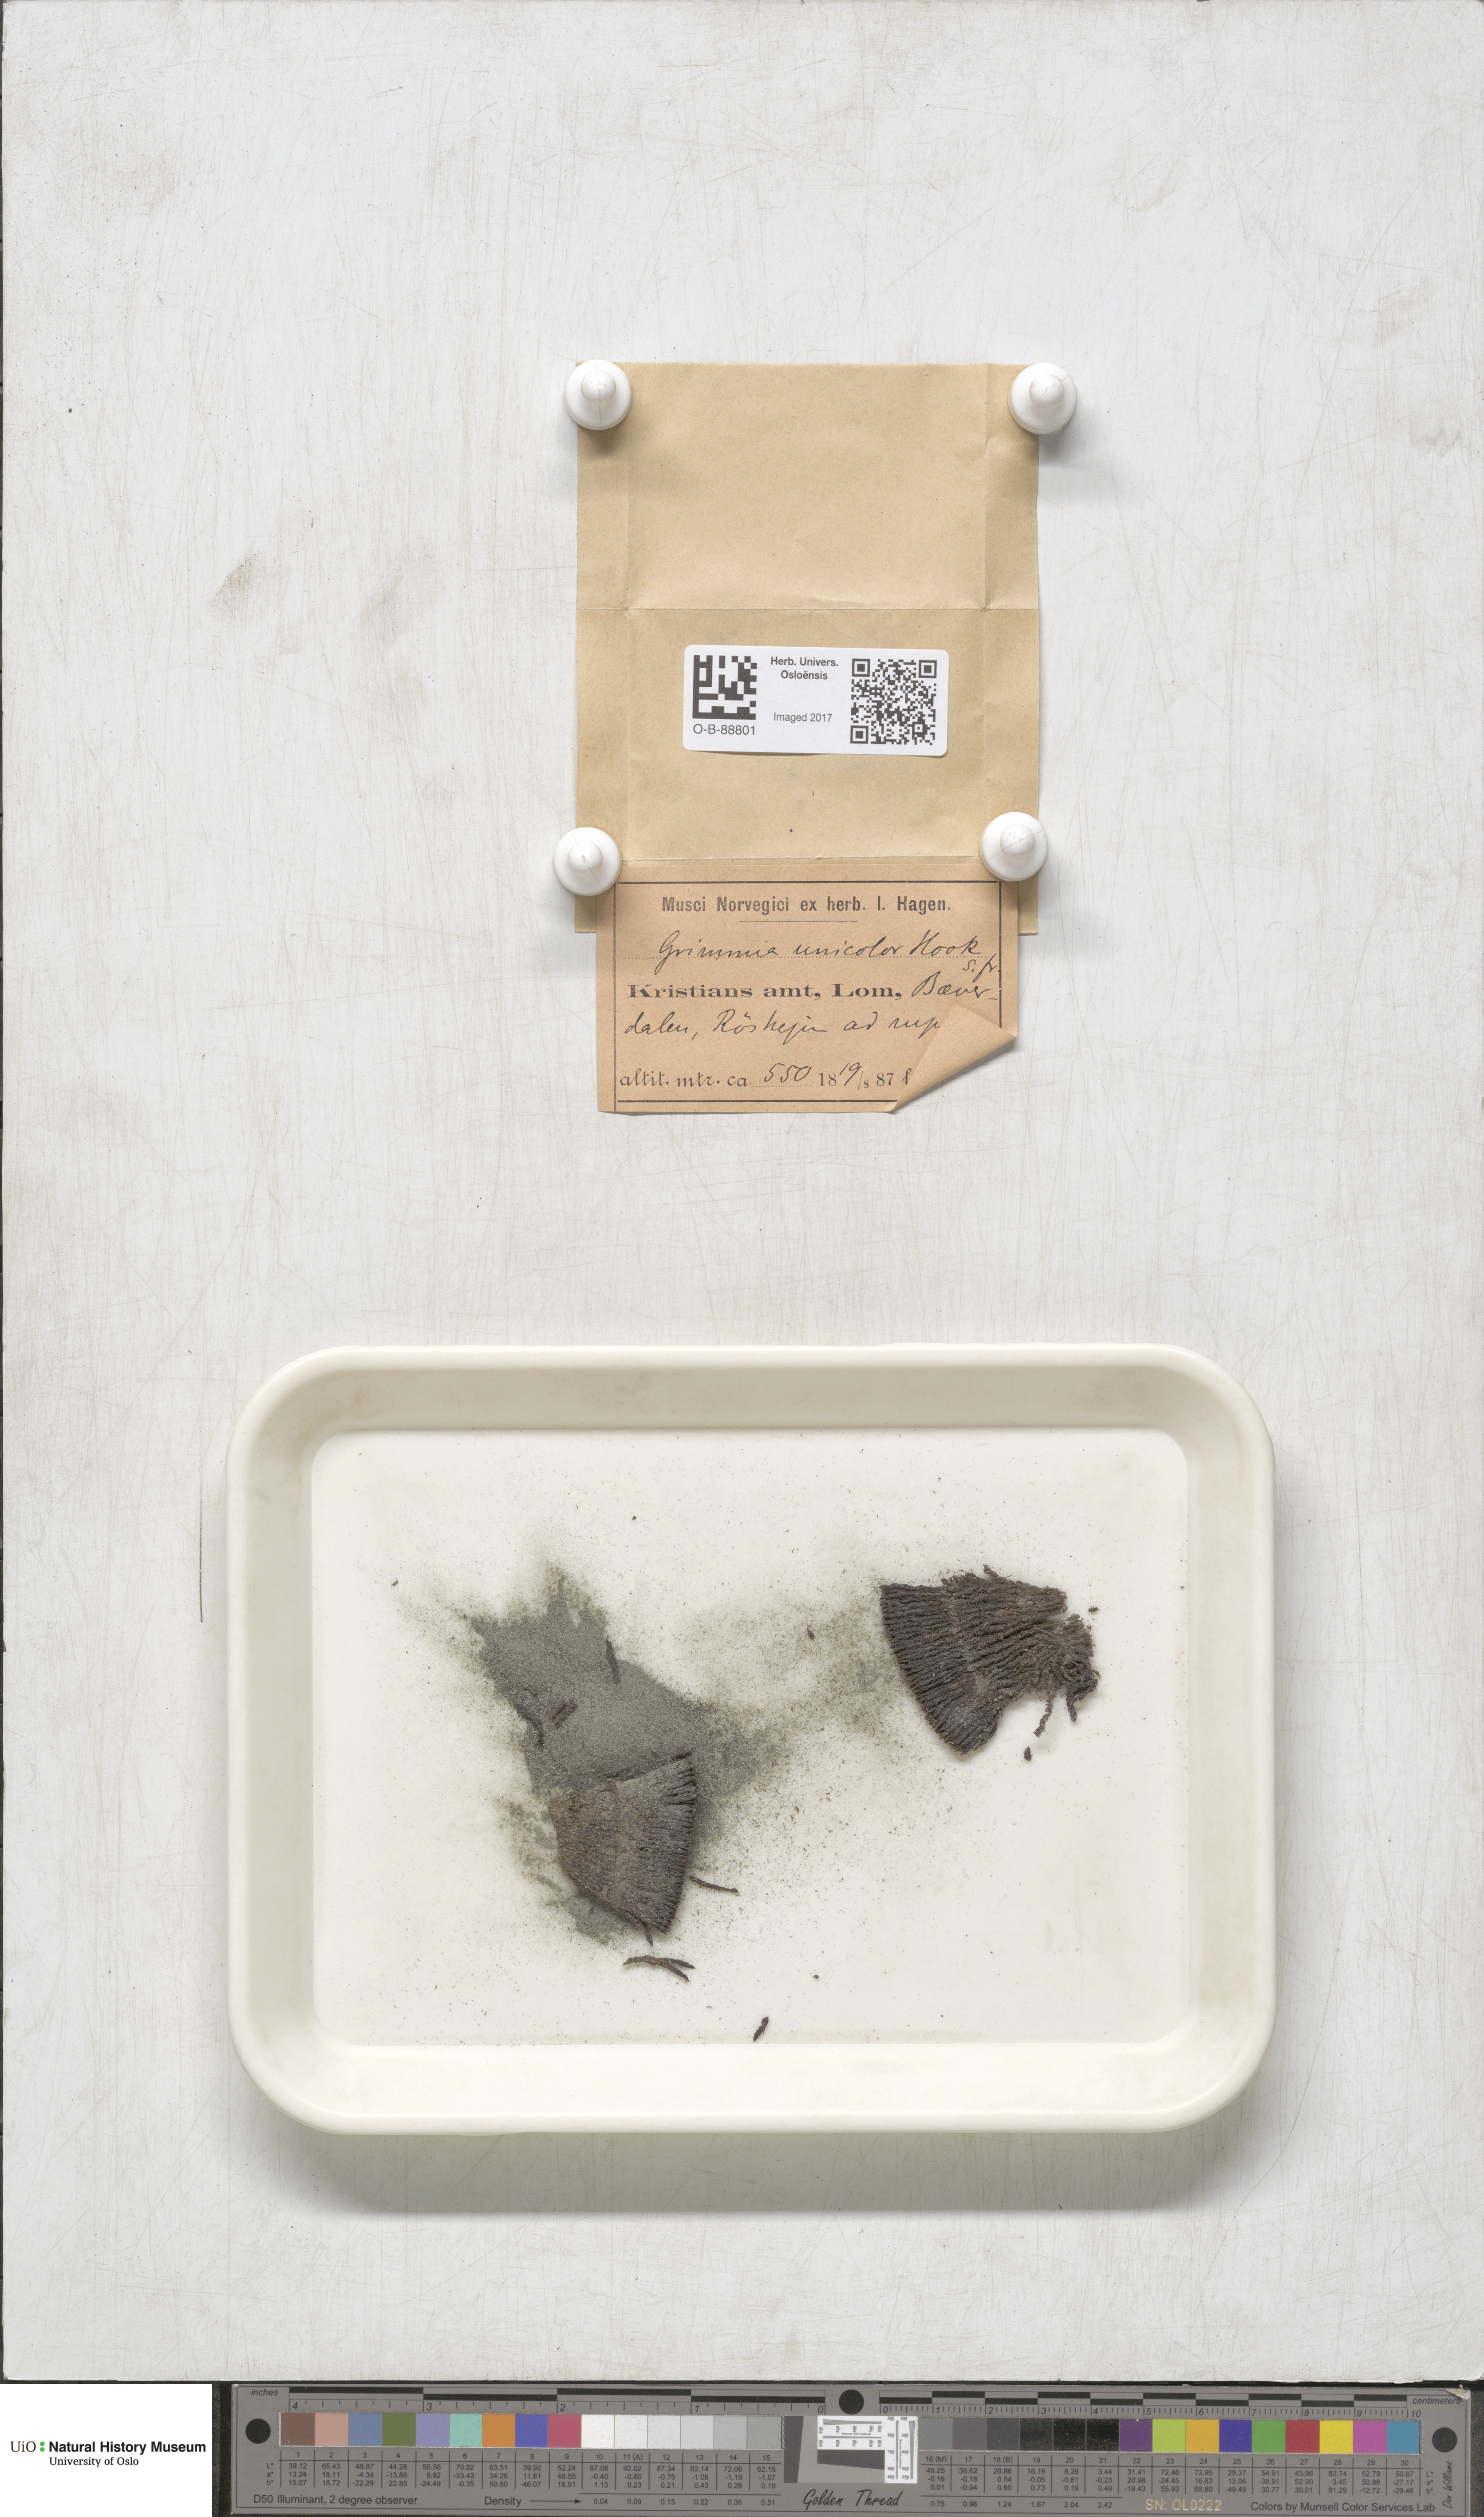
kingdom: Plantae
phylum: Bryophyta
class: Bryopsida
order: Grimmiales
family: Grimmiaceae
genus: Grimmia
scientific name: Grimmia unicolor
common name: Dingy grimmia
